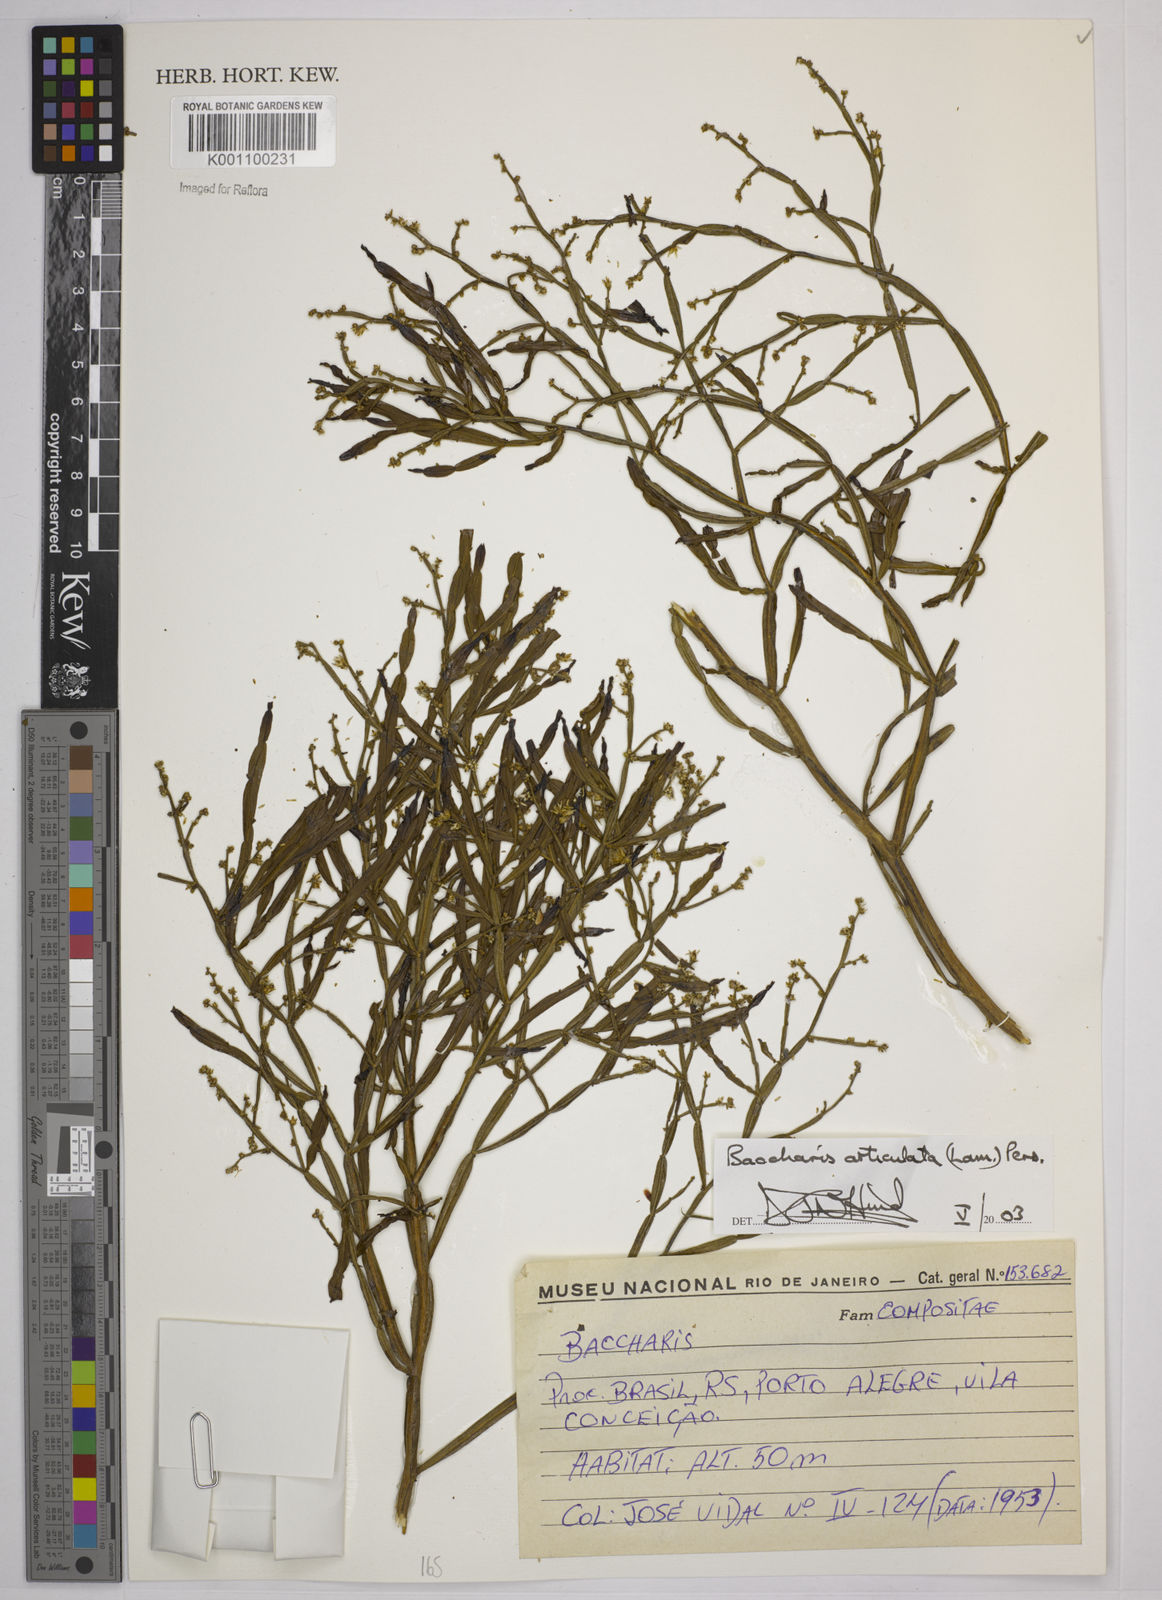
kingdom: Plantae
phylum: Tracheophyta
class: Magnoliopsida
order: Asterales
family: Asteraceae
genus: Baccharis
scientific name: Baccharis
